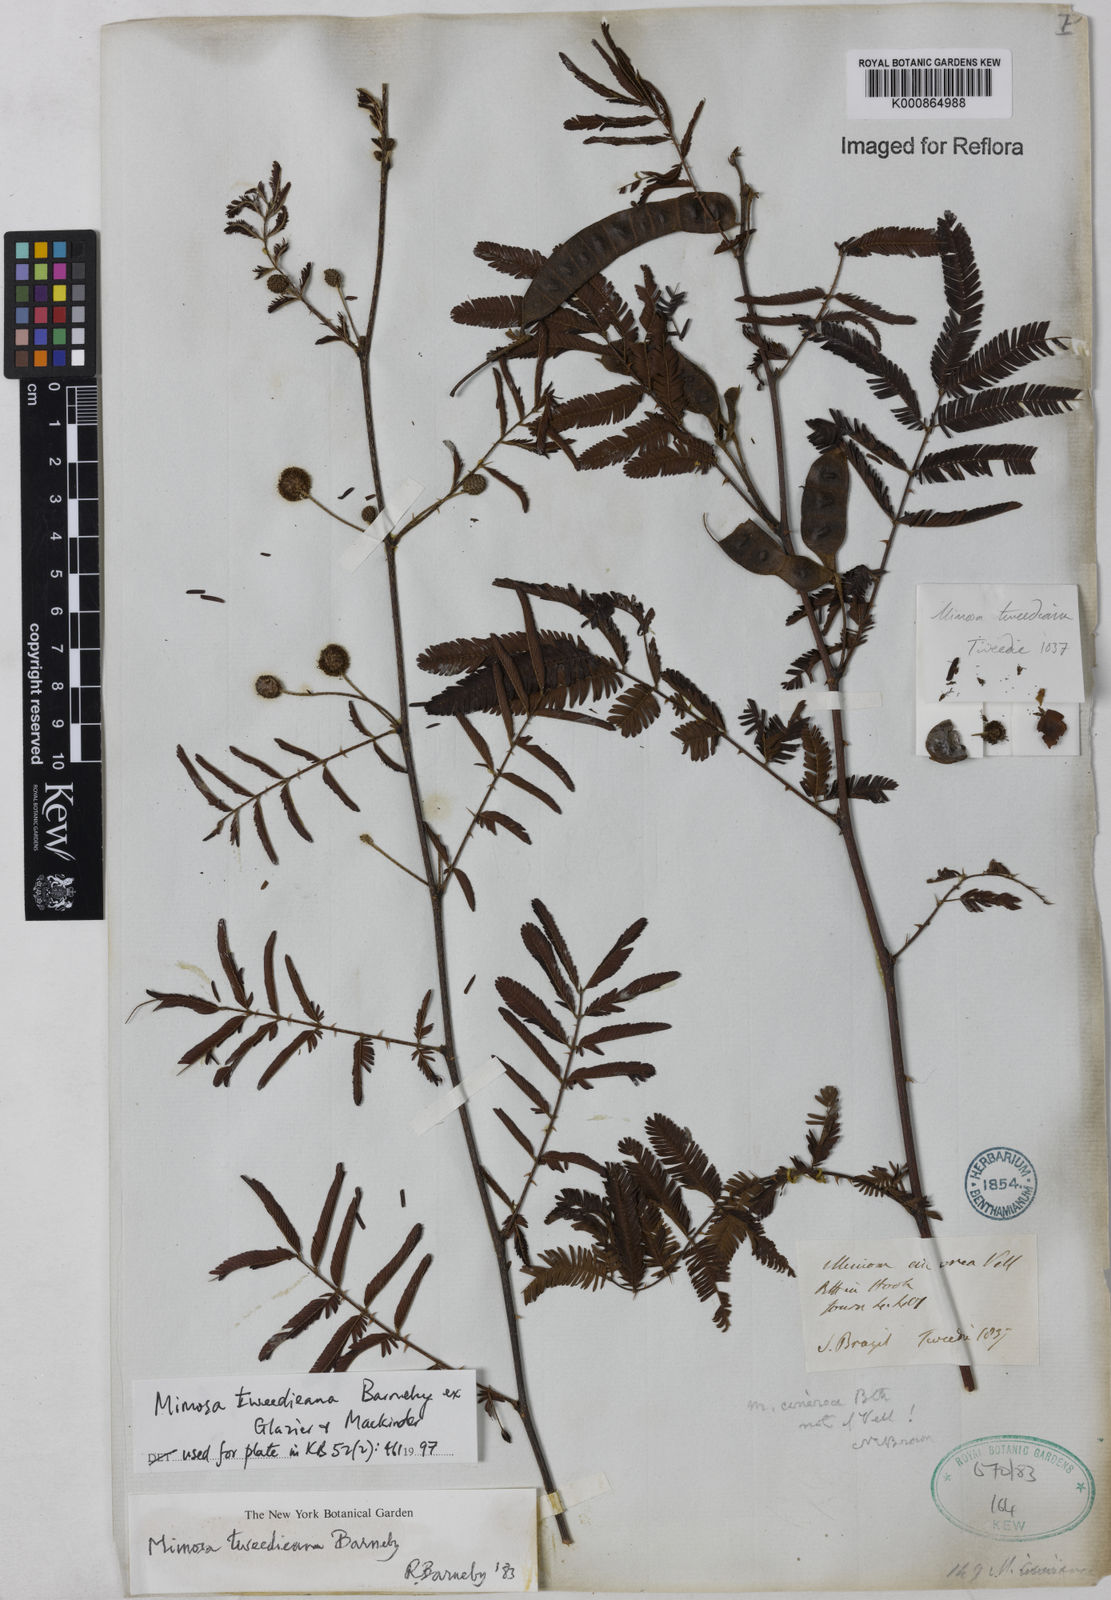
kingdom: Plantae
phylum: Tracheophyta
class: Magnoliopsida
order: Fabales
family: Fabaceae
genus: Mimosa
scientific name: Mimosa tweedieana
